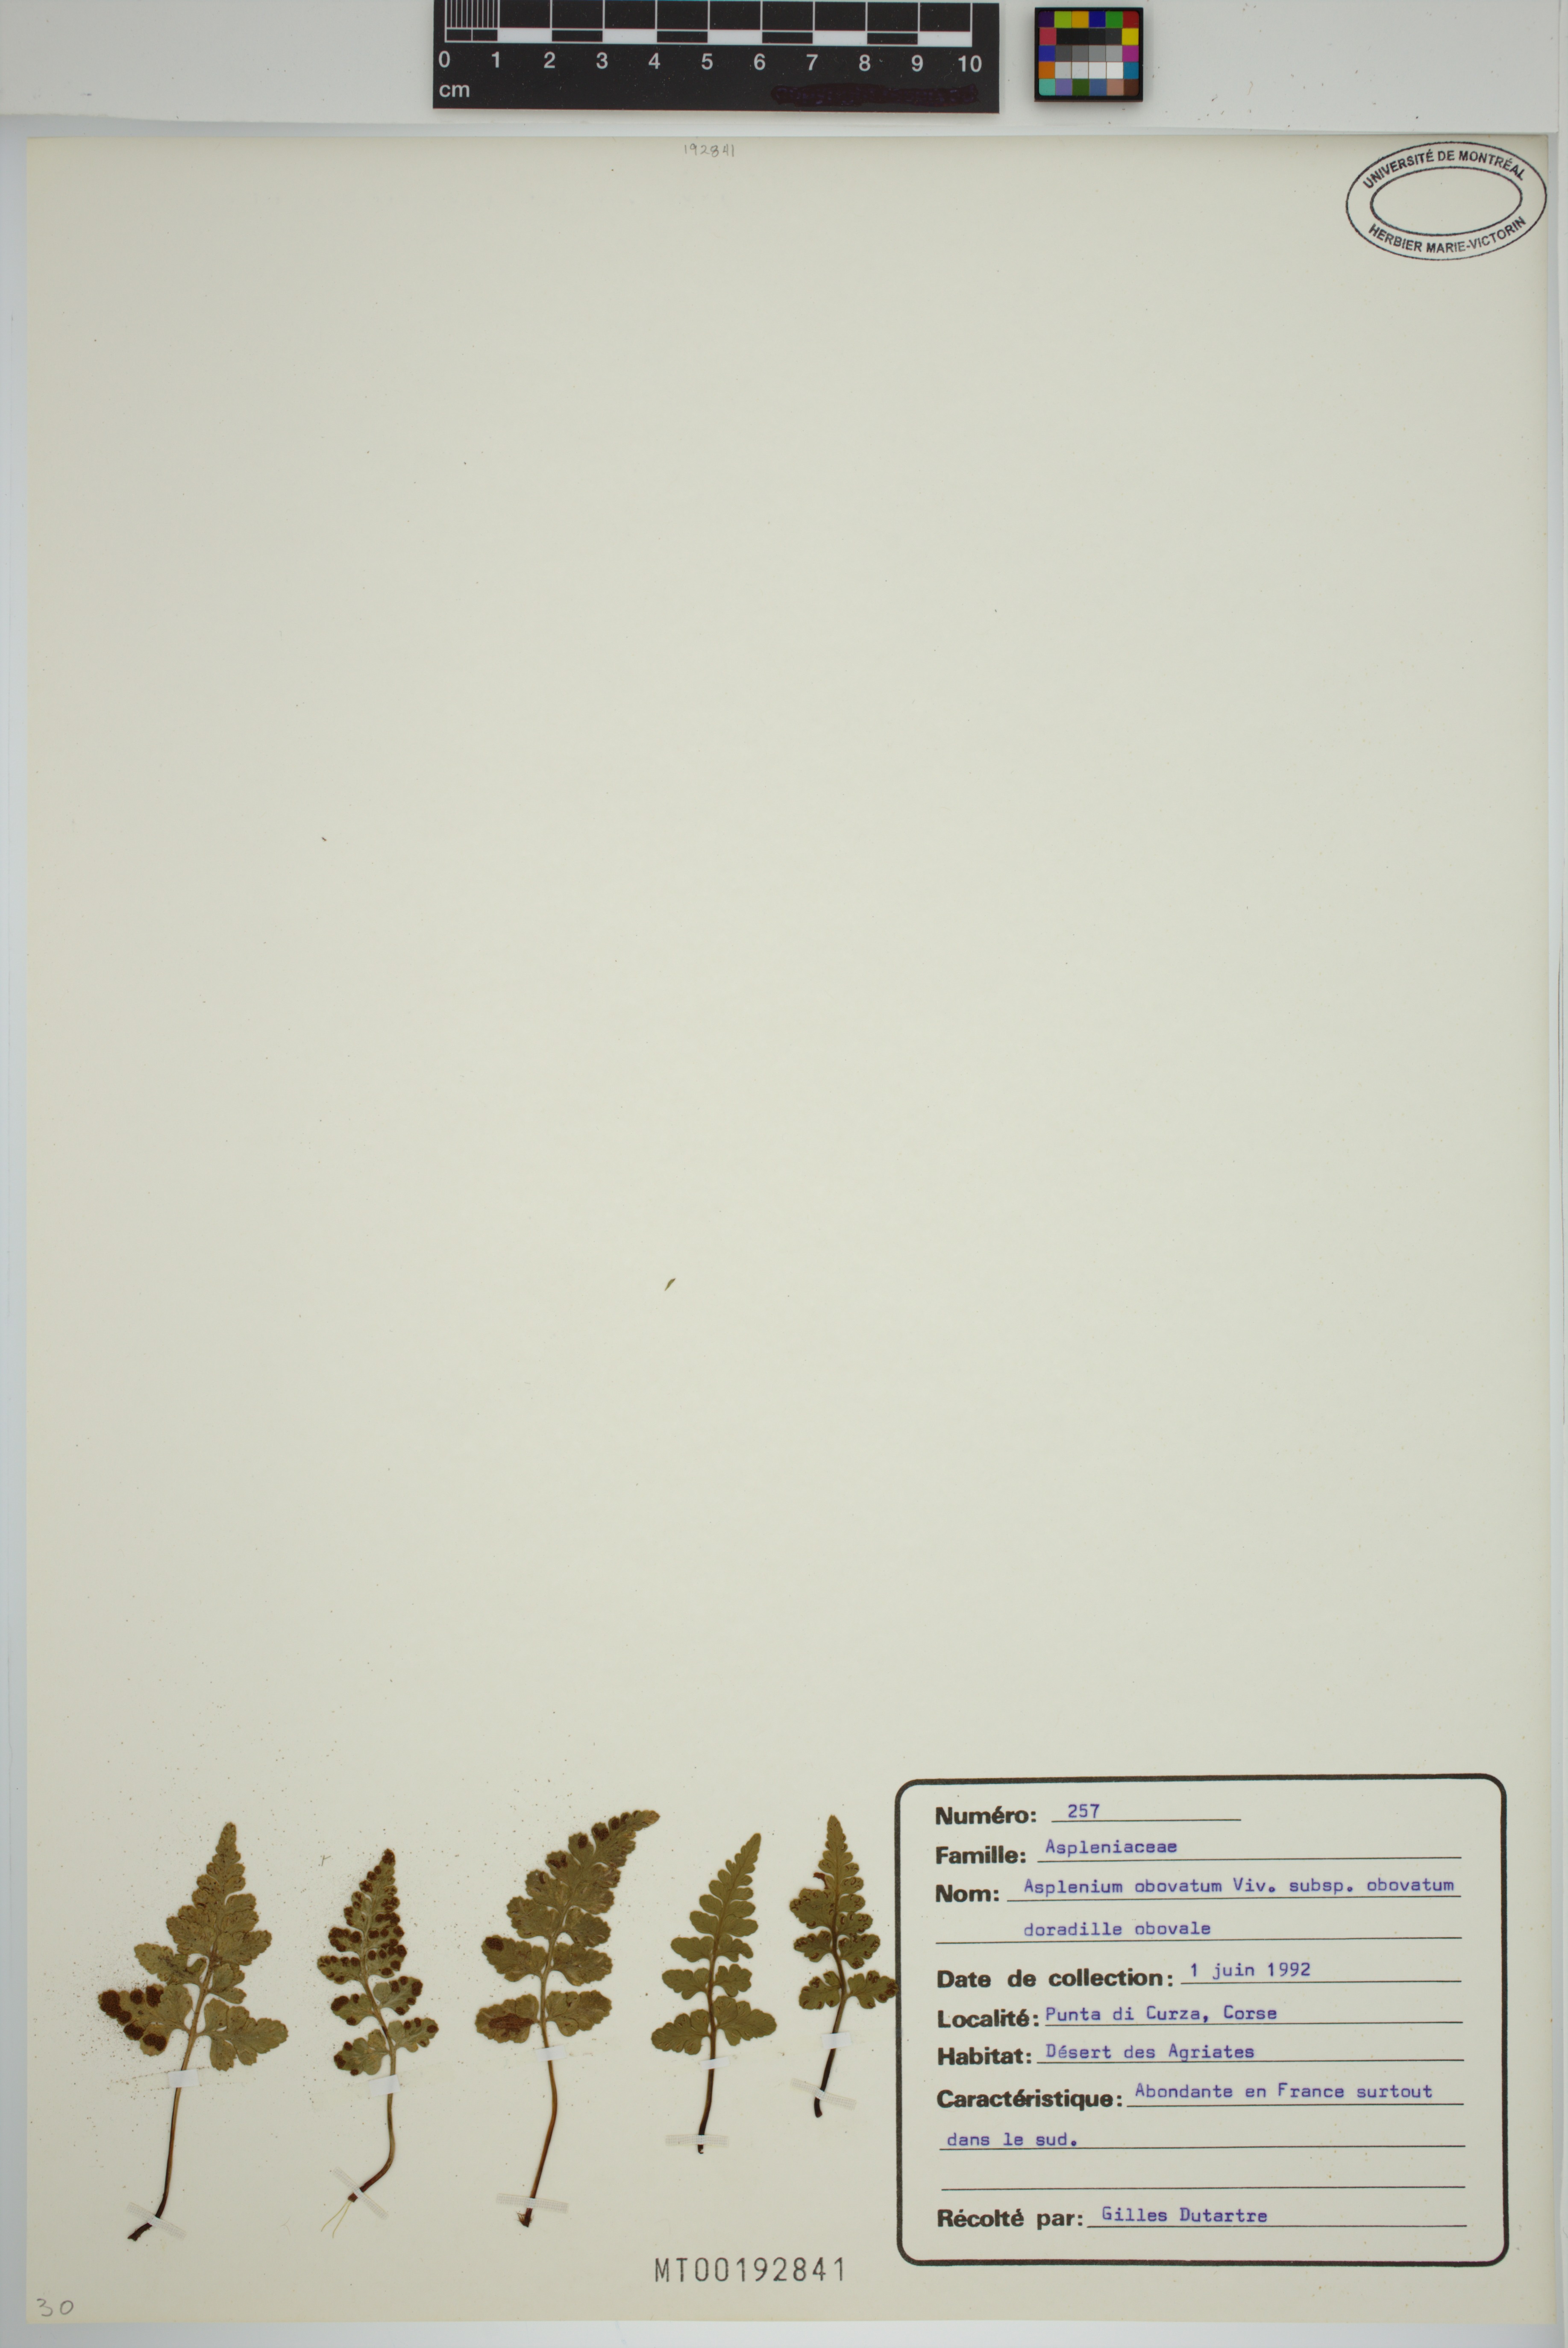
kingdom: Plantae
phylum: Tracheophyta
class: Polypodiopsida
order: Polypodiales
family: Aspleniaceae
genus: Asplenium
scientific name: Asplenium obovatum
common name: Lanceolate spleenwort
